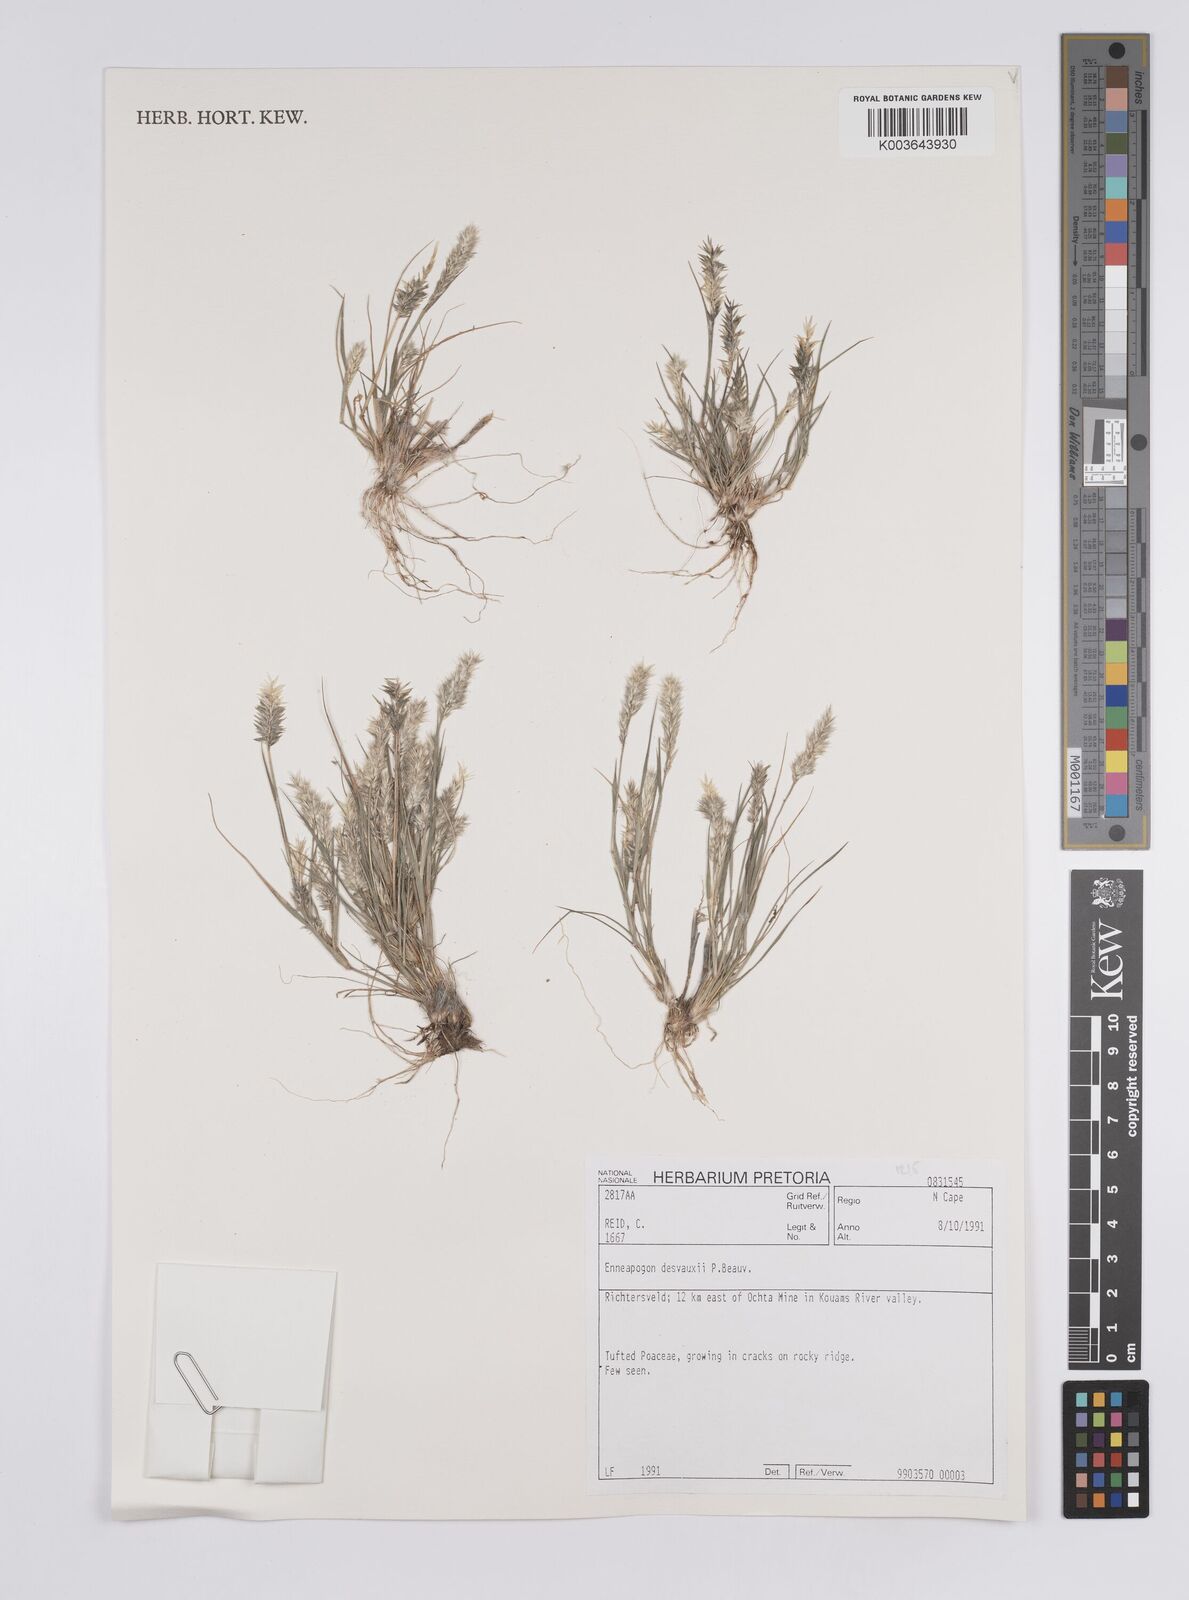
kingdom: Plantae
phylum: Tracheophyta
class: Liliopsida
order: Poales
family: Poaceae
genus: Enneapogon
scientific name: Enneapogon desvauxii
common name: Feather pappus grass
